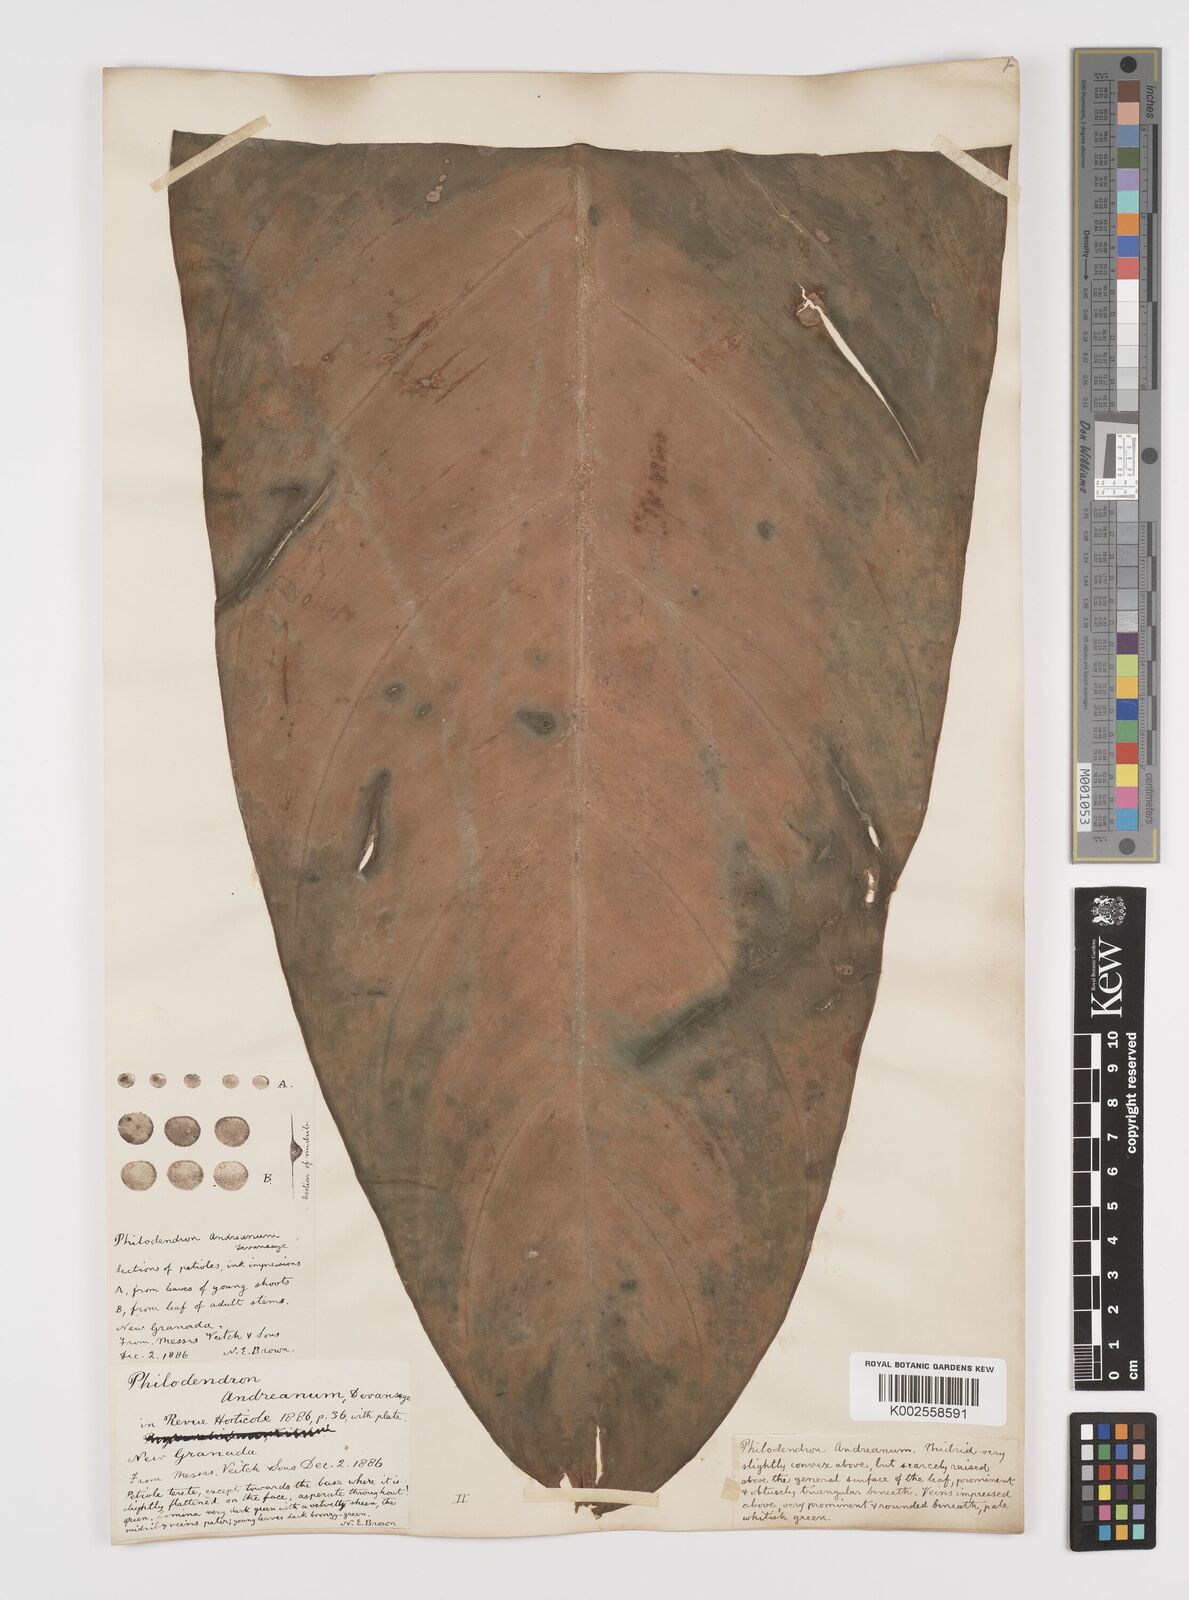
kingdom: Plantae
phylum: Tracheophyta
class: Liliopsida
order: Alismatales
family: Araceae
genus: Philodendron
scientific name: Philodendron melanochrysum
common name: Black-gold philodendron
